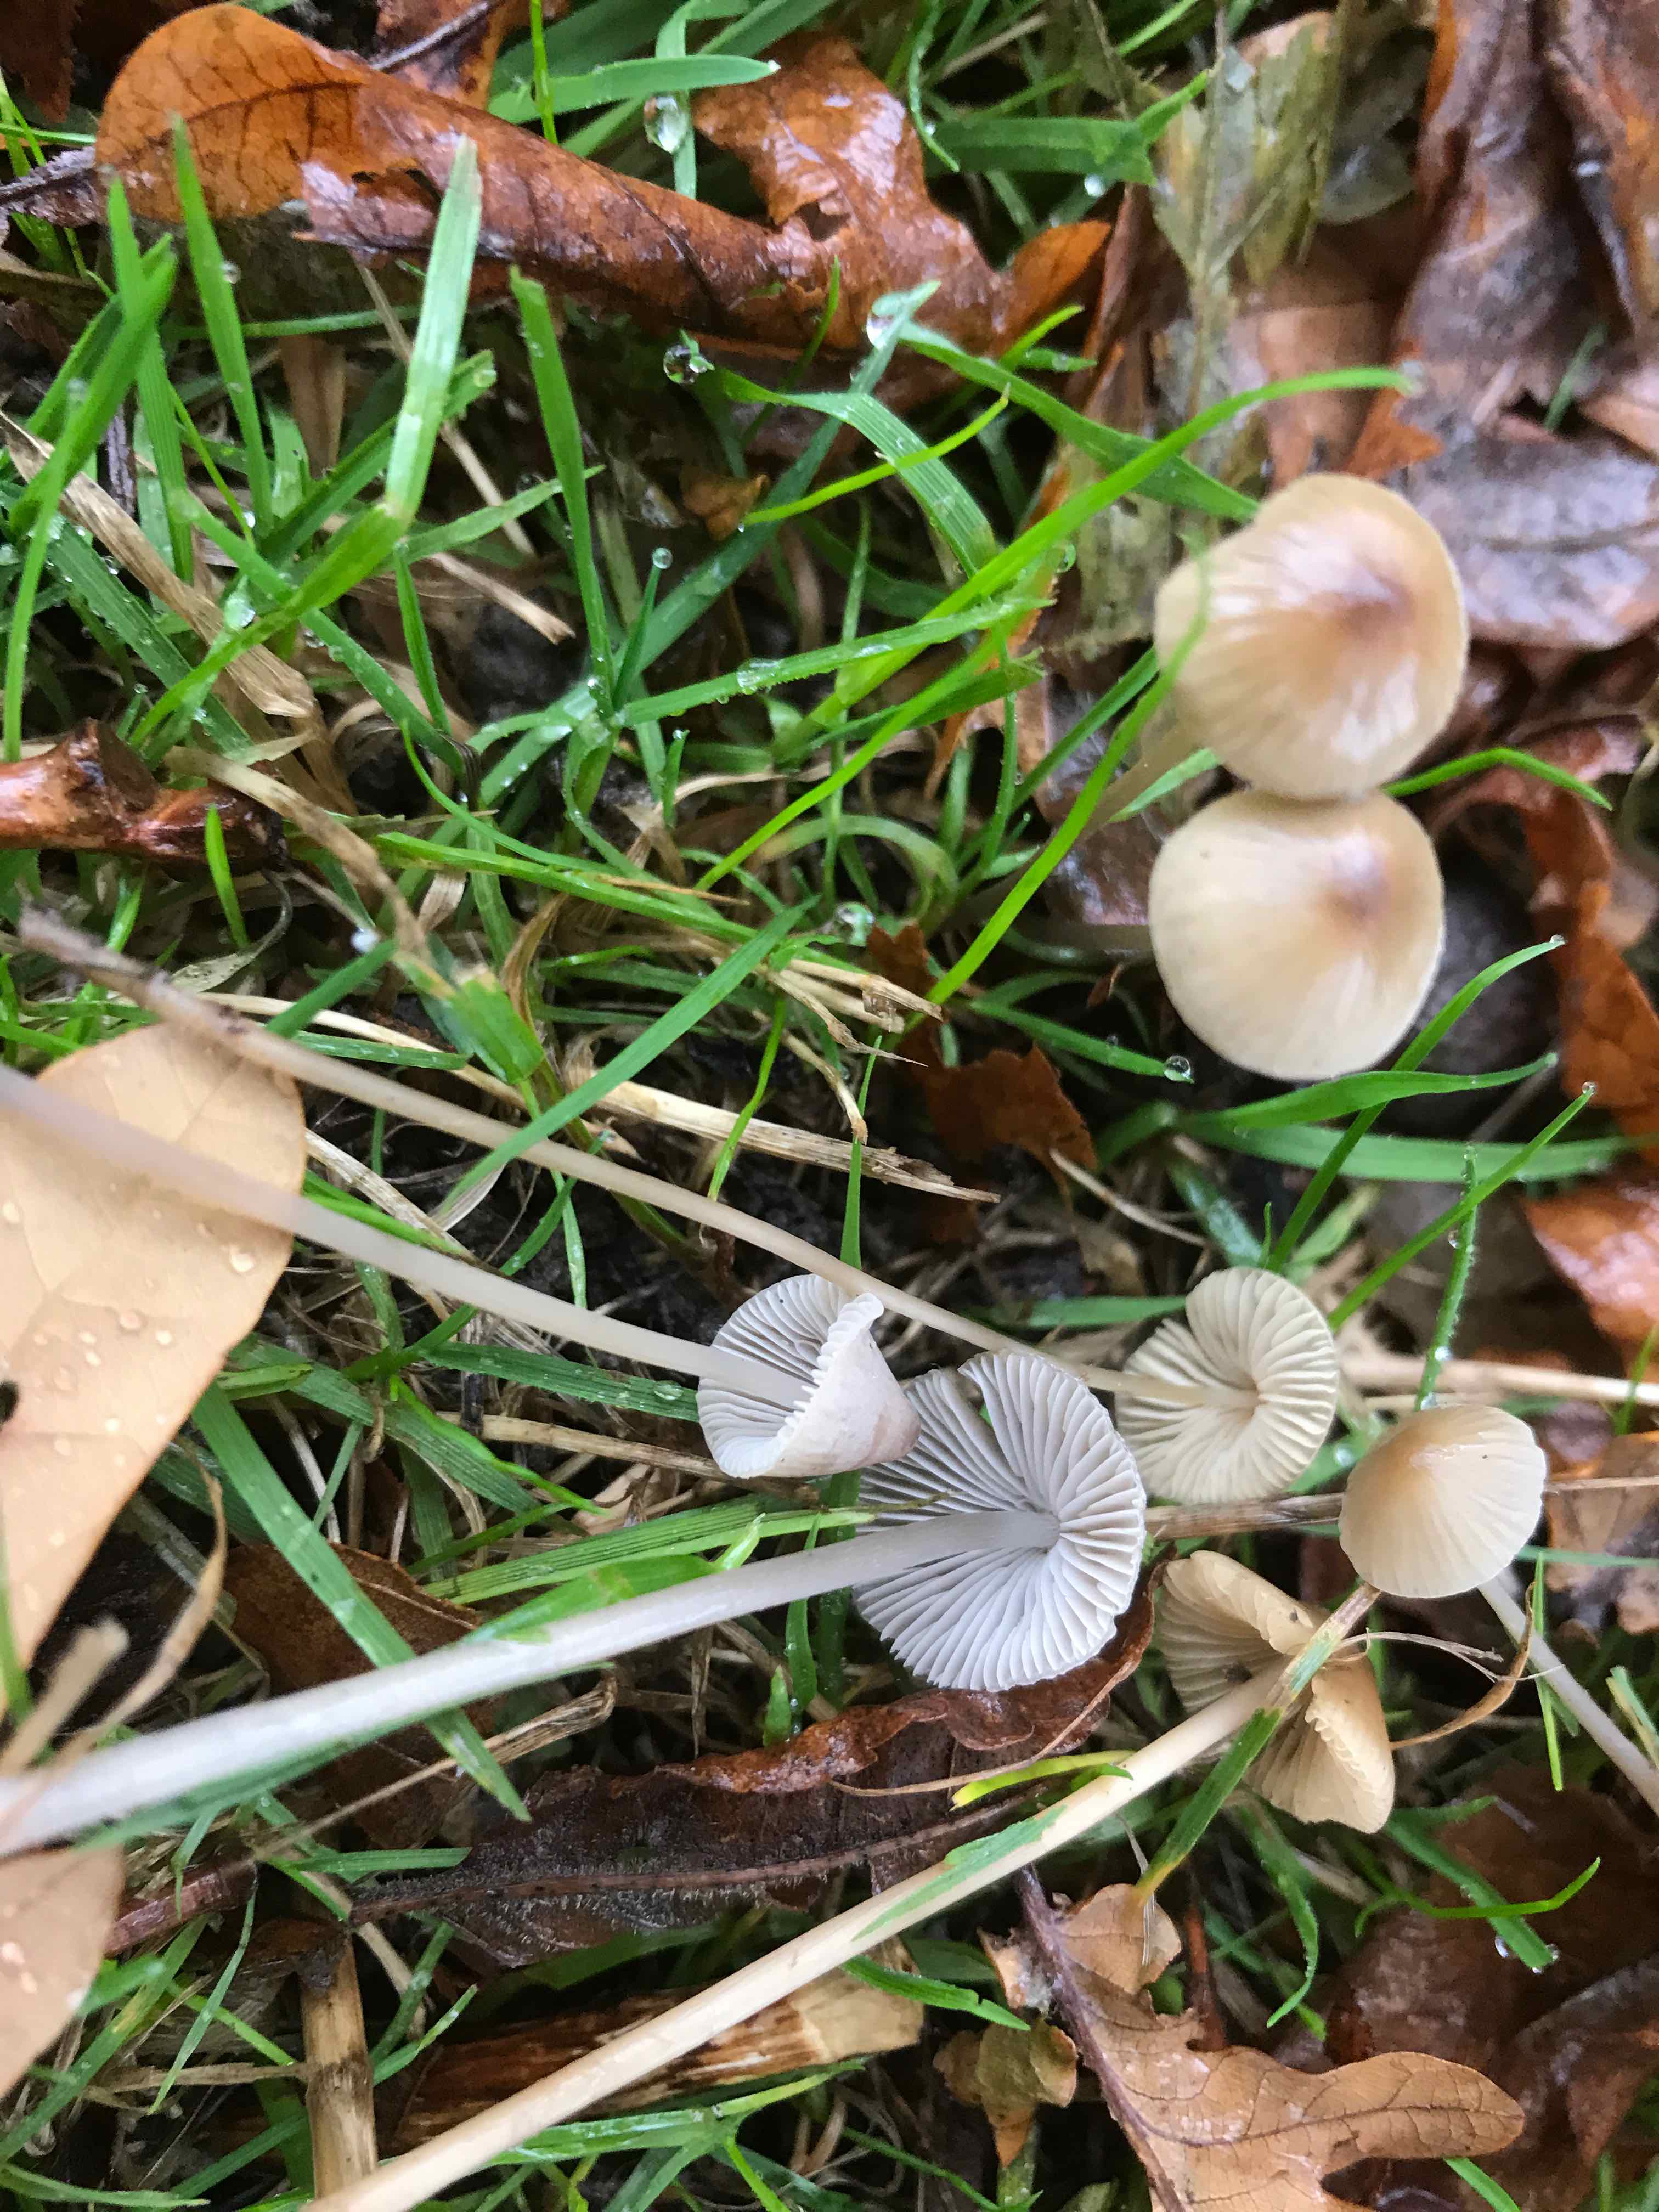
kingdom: Fungi
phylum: Basidiomycota
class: Agaricomycetes
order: Agaricales
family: Mycenaceae
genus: Mycena
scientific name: Mycena
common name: huesvamp
